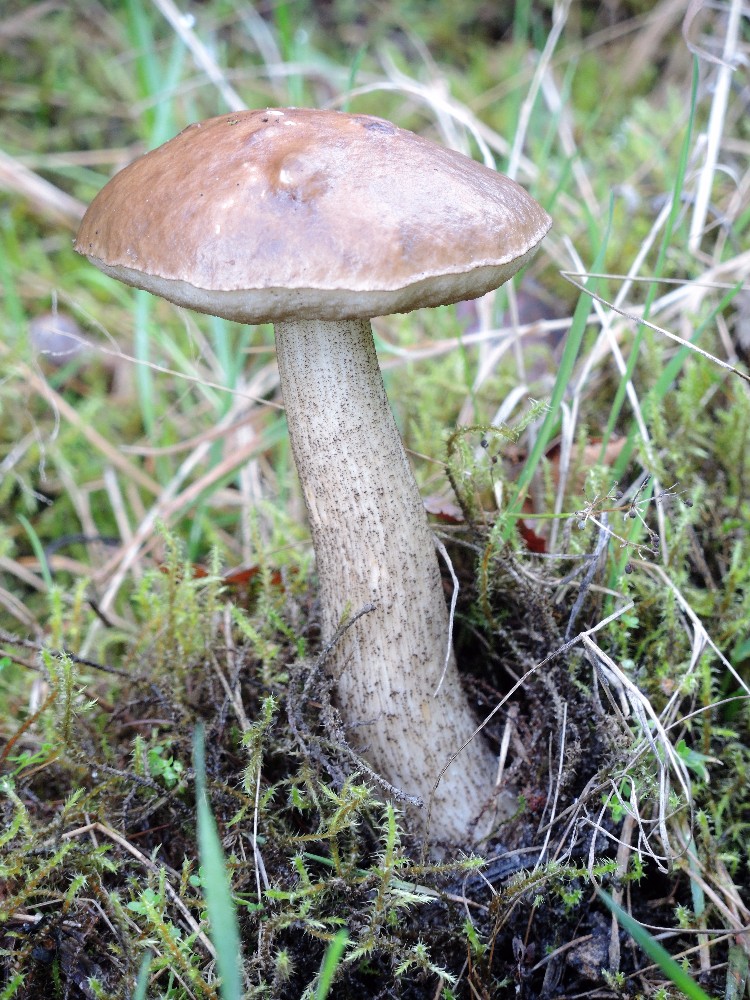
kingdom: Fungi
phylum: Basidiomycota
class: Agaricomycetes
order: Boletales
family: Boletaceae
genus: Leccinum
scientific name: Leccinum cyaneobasileucum
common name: almindelig skælrørhat
